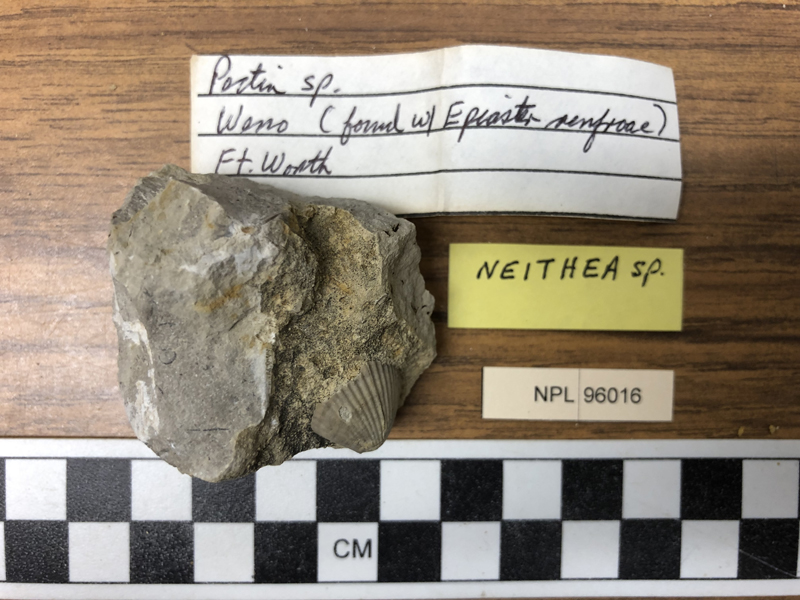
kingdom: Animalia
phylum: Mollusca
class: Bivalvia
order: Pectinida
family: Neitheidae
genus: Neithea
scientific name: Neithea
